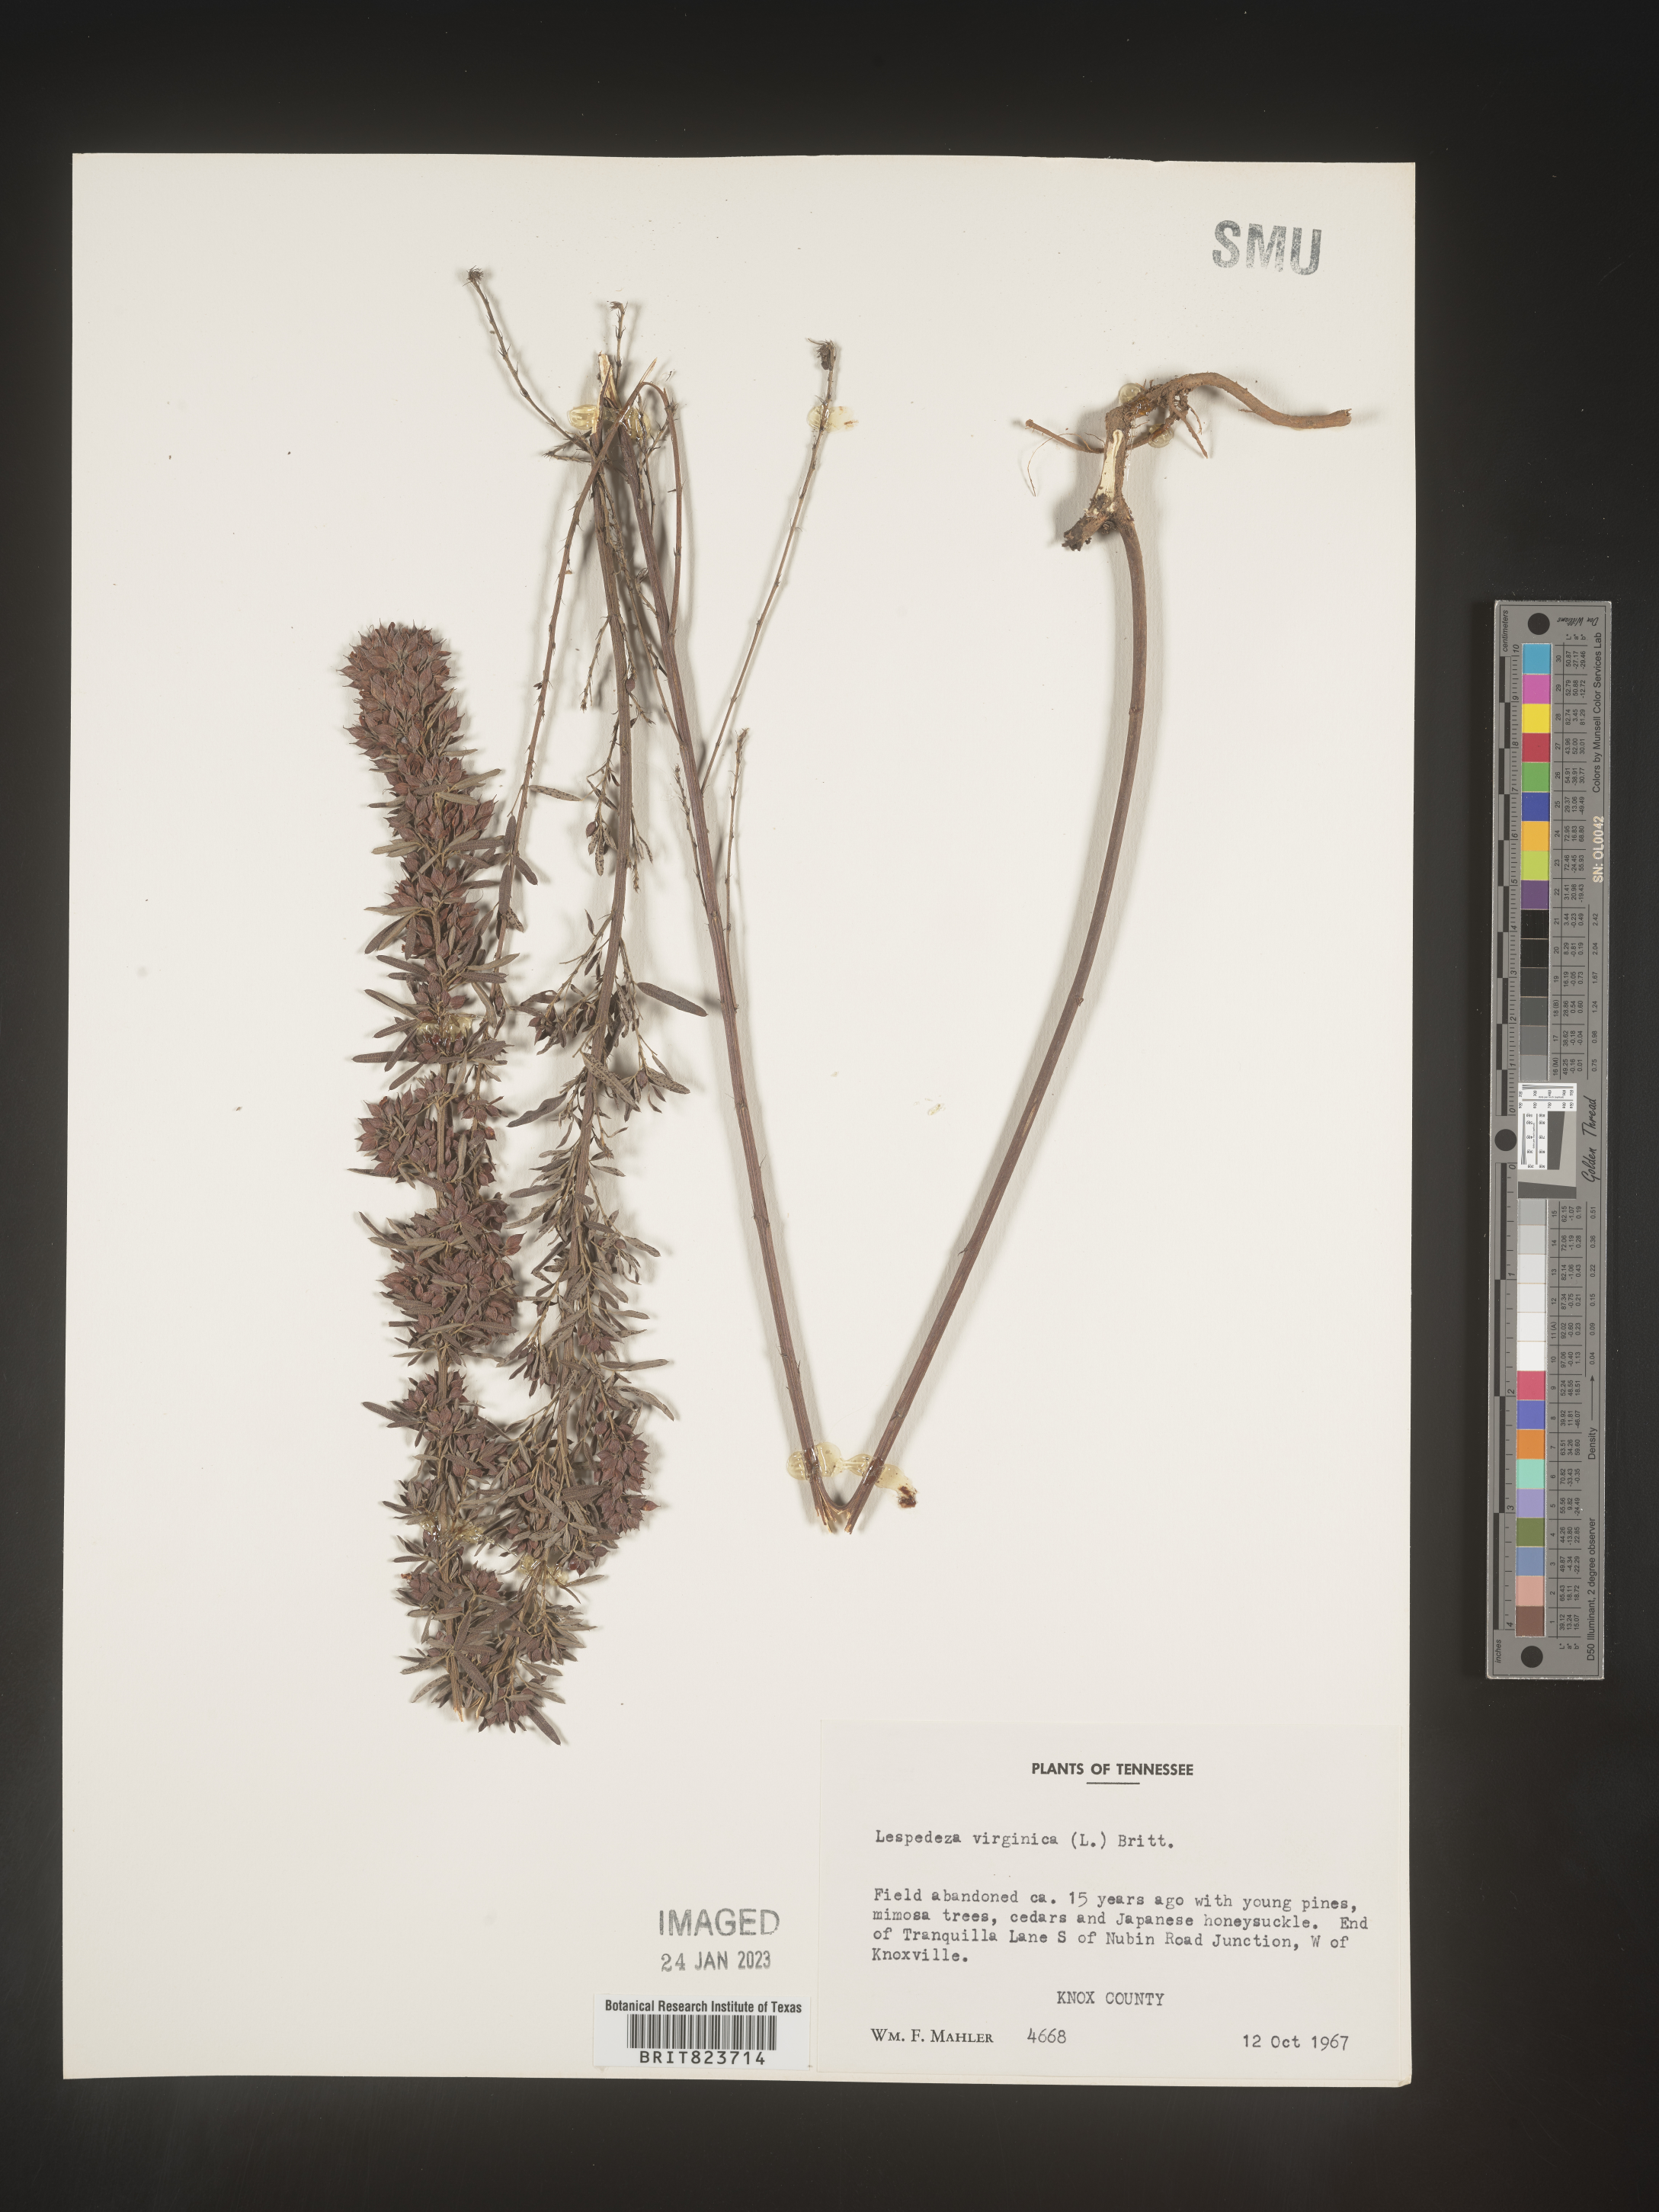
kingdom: Plantae
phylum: Tracheophyta
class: Magnoliopsida
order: Fabales
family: Fabaceae
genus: Lespedeza
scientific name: Lespedeza virginica
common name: Slender bush-clover
